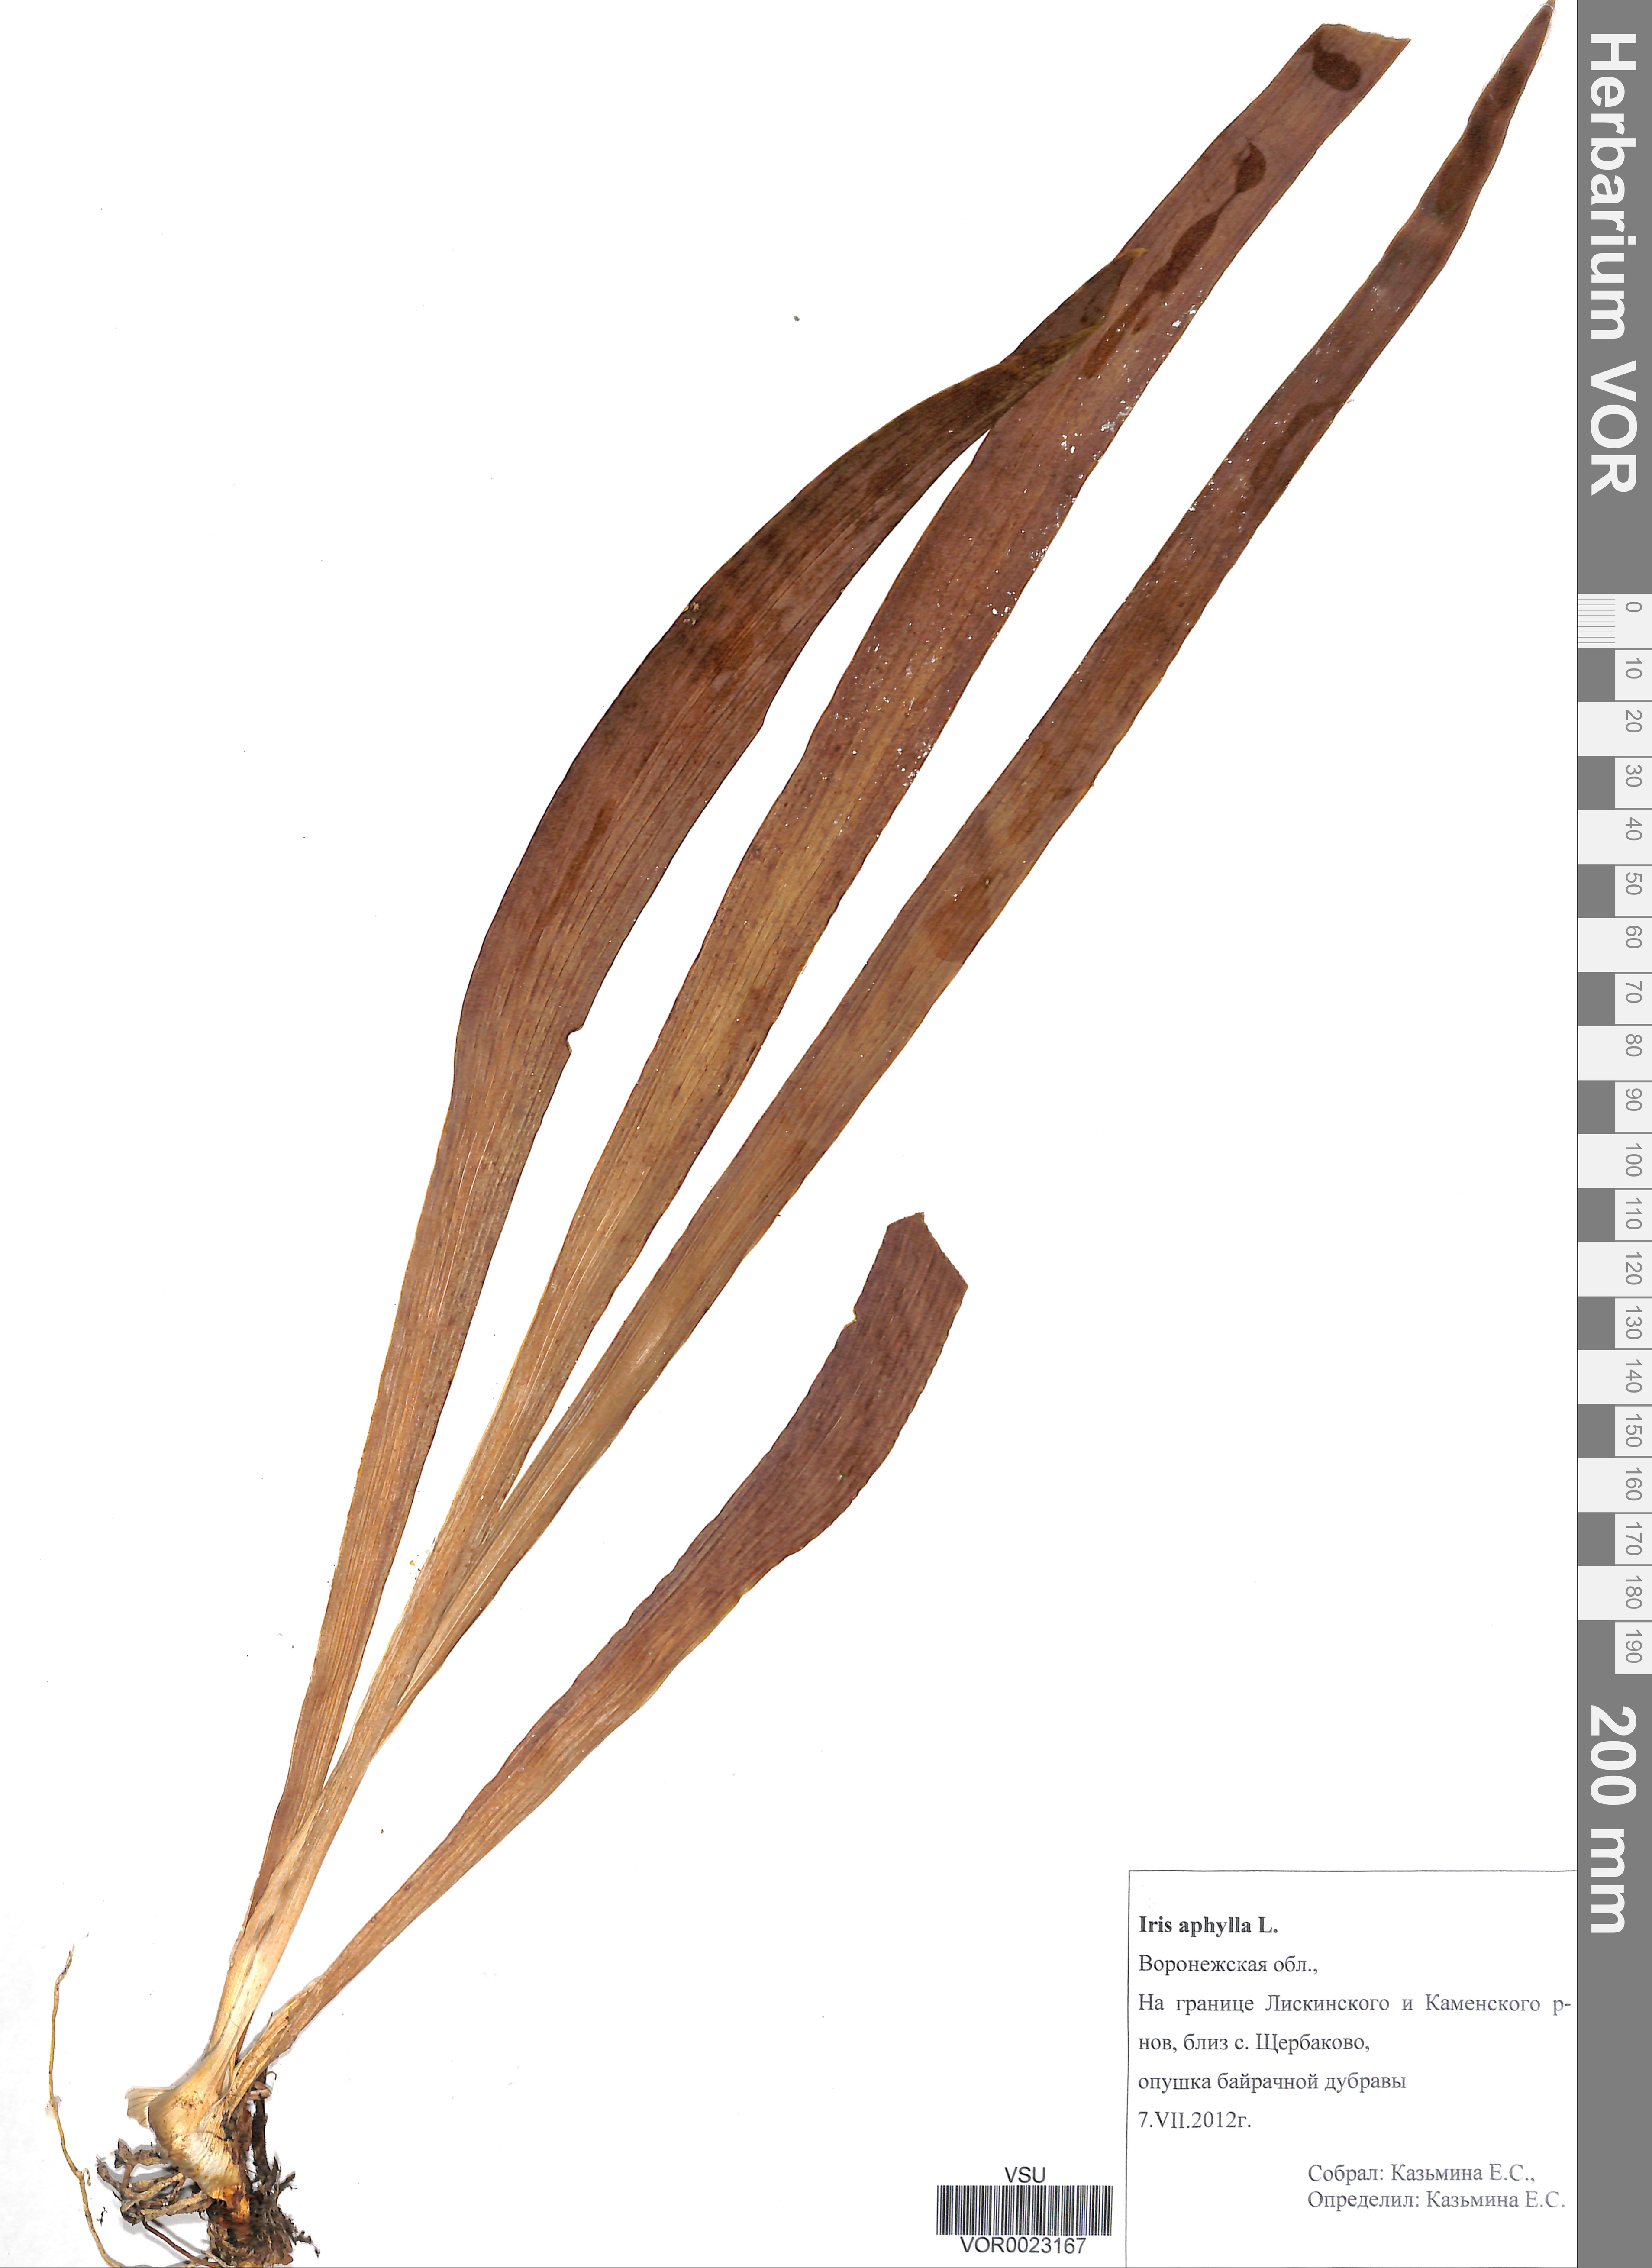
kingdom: Plantae
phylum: Tracheophyta
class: Liliopsida
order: Asparagales
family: Iridaceae
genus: Iris
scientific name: Iris aphylla
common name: Stool iris
